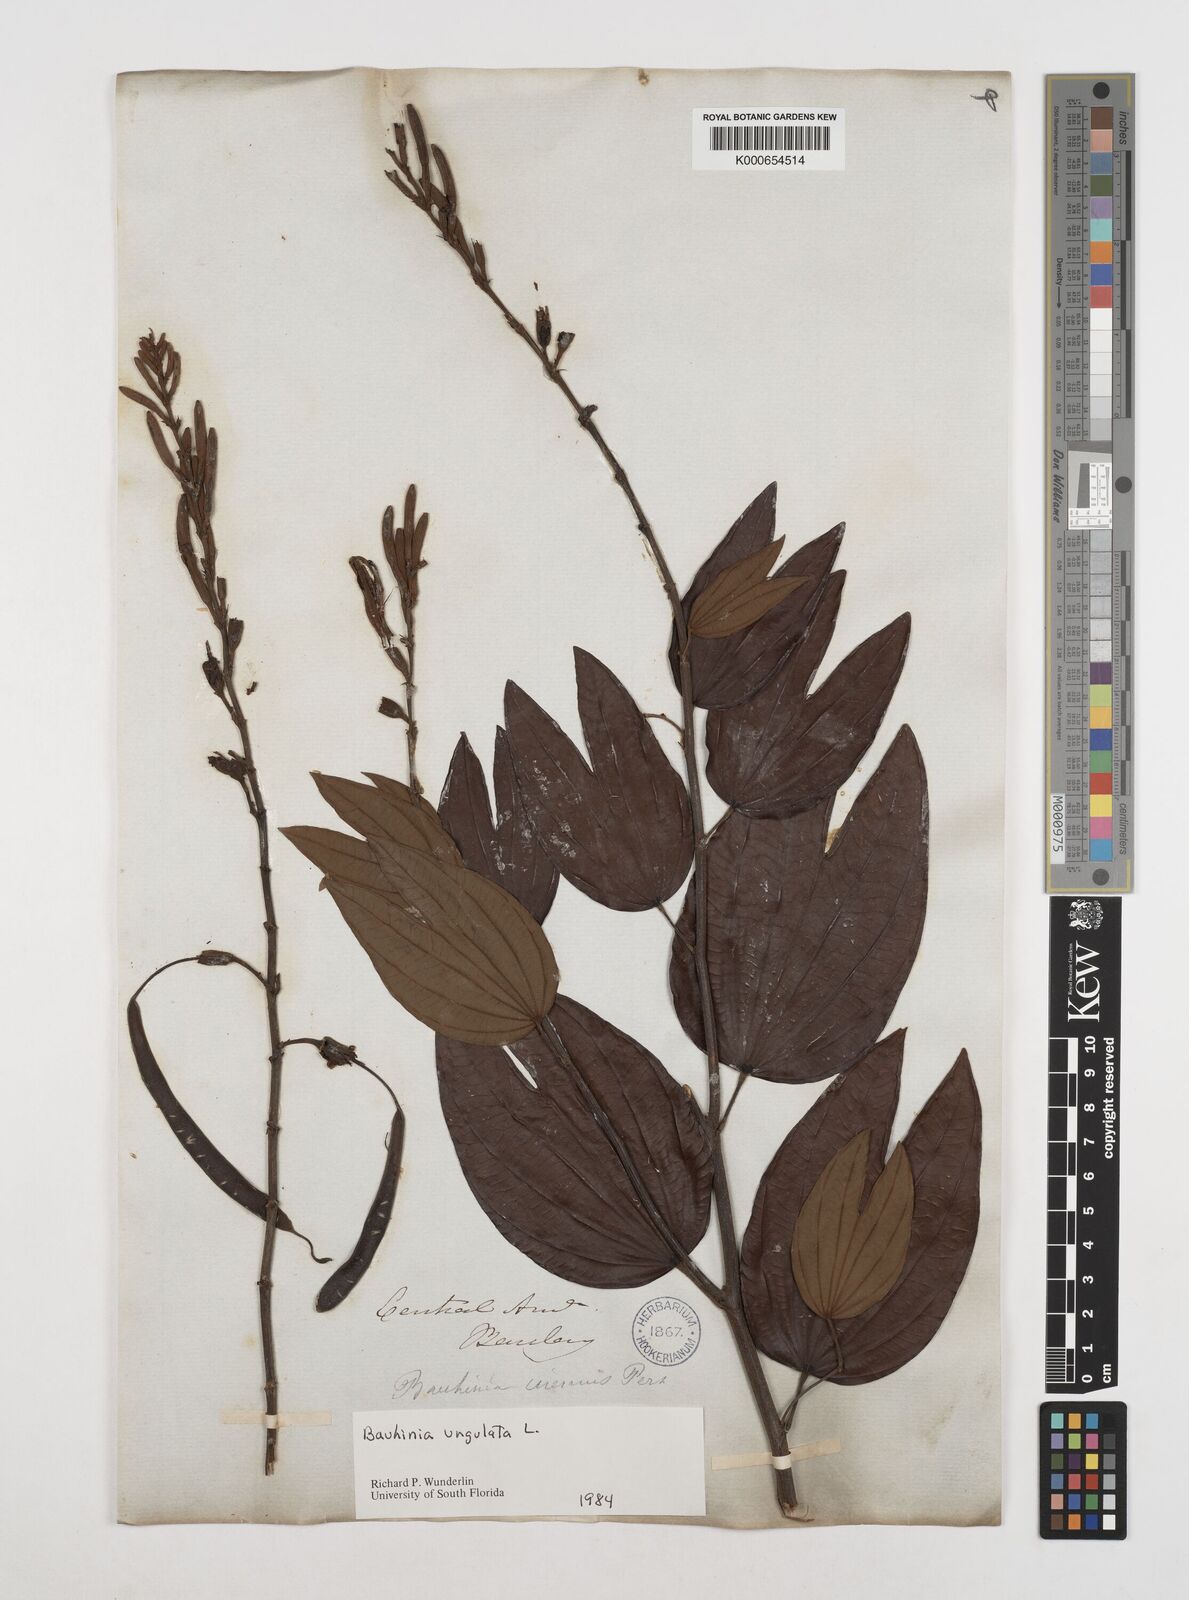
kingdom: Plantae
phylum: Tracheophyta
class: Magnoliopsida
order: Fabales
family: Fabaceae
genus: Bauhinia
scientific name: Bauhinia ungulata
